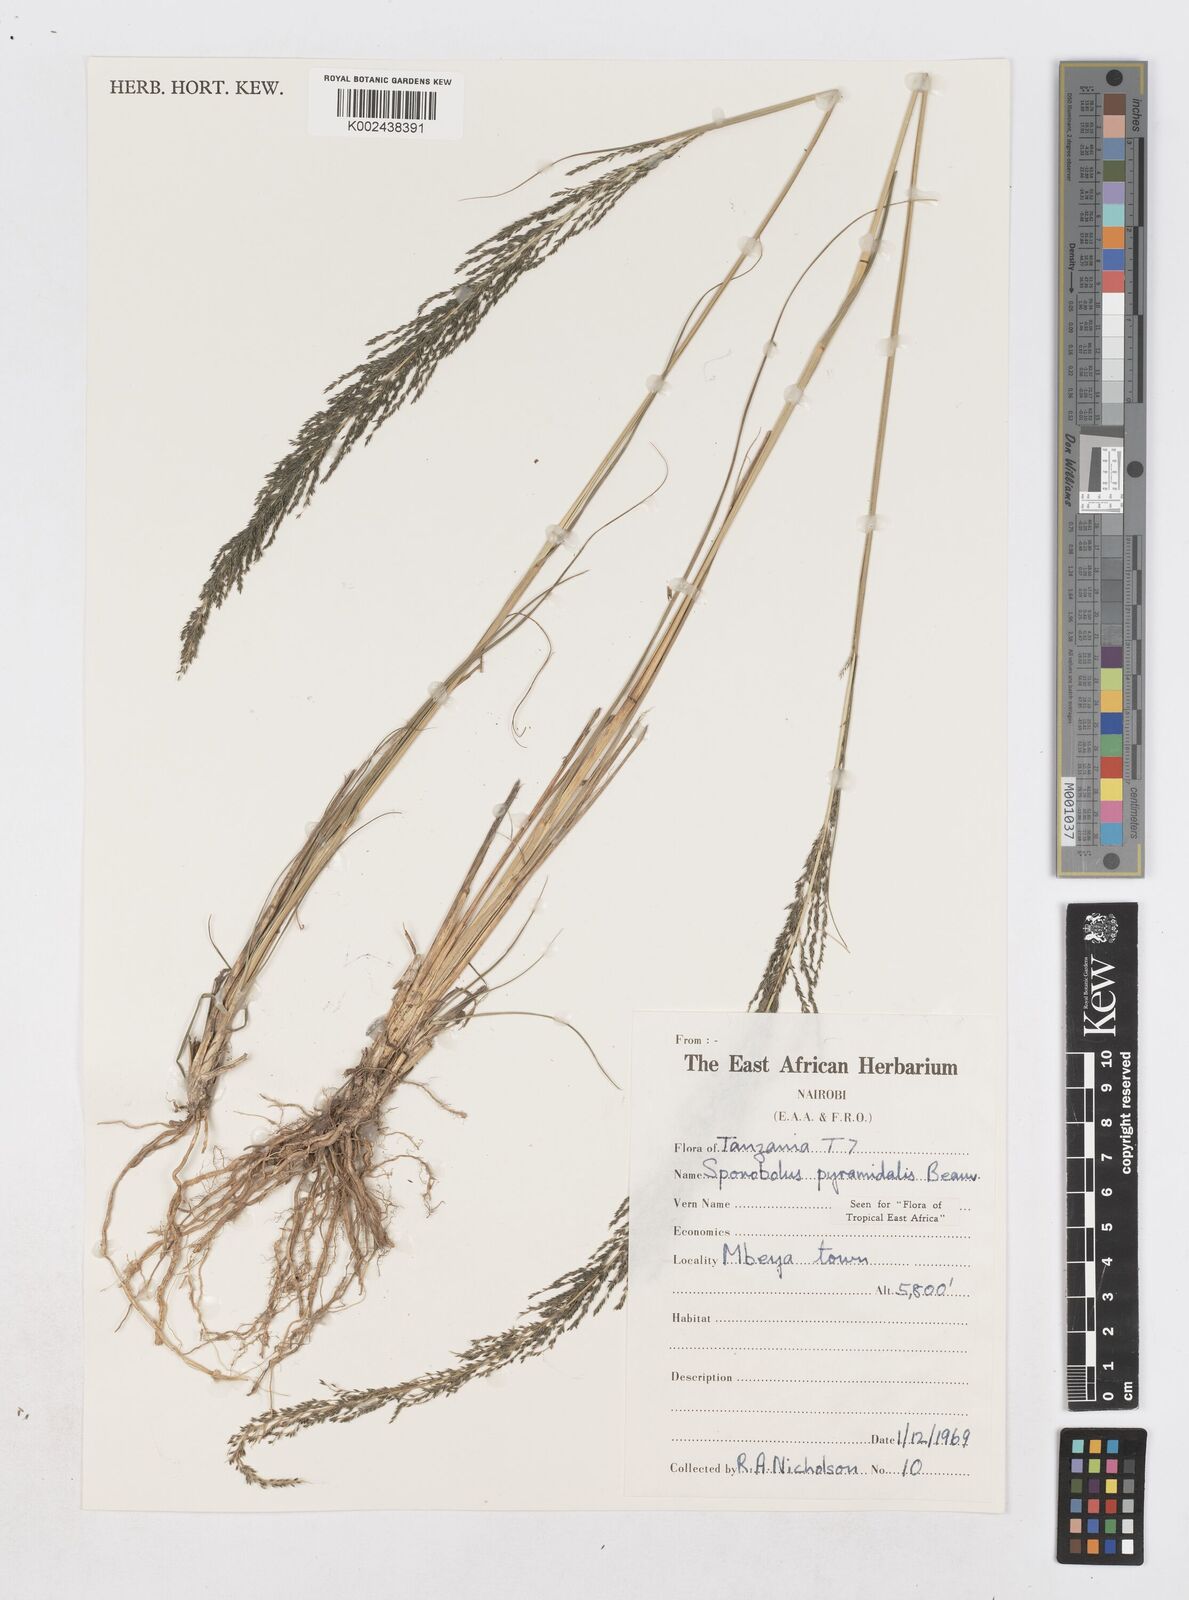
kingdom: Plantae
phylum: Tracheophyta
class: Liliopsida
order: Poales
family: Poaceae
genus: Sporobolus
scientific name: Sporobolus pyramidalis
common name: West indian dropseed
